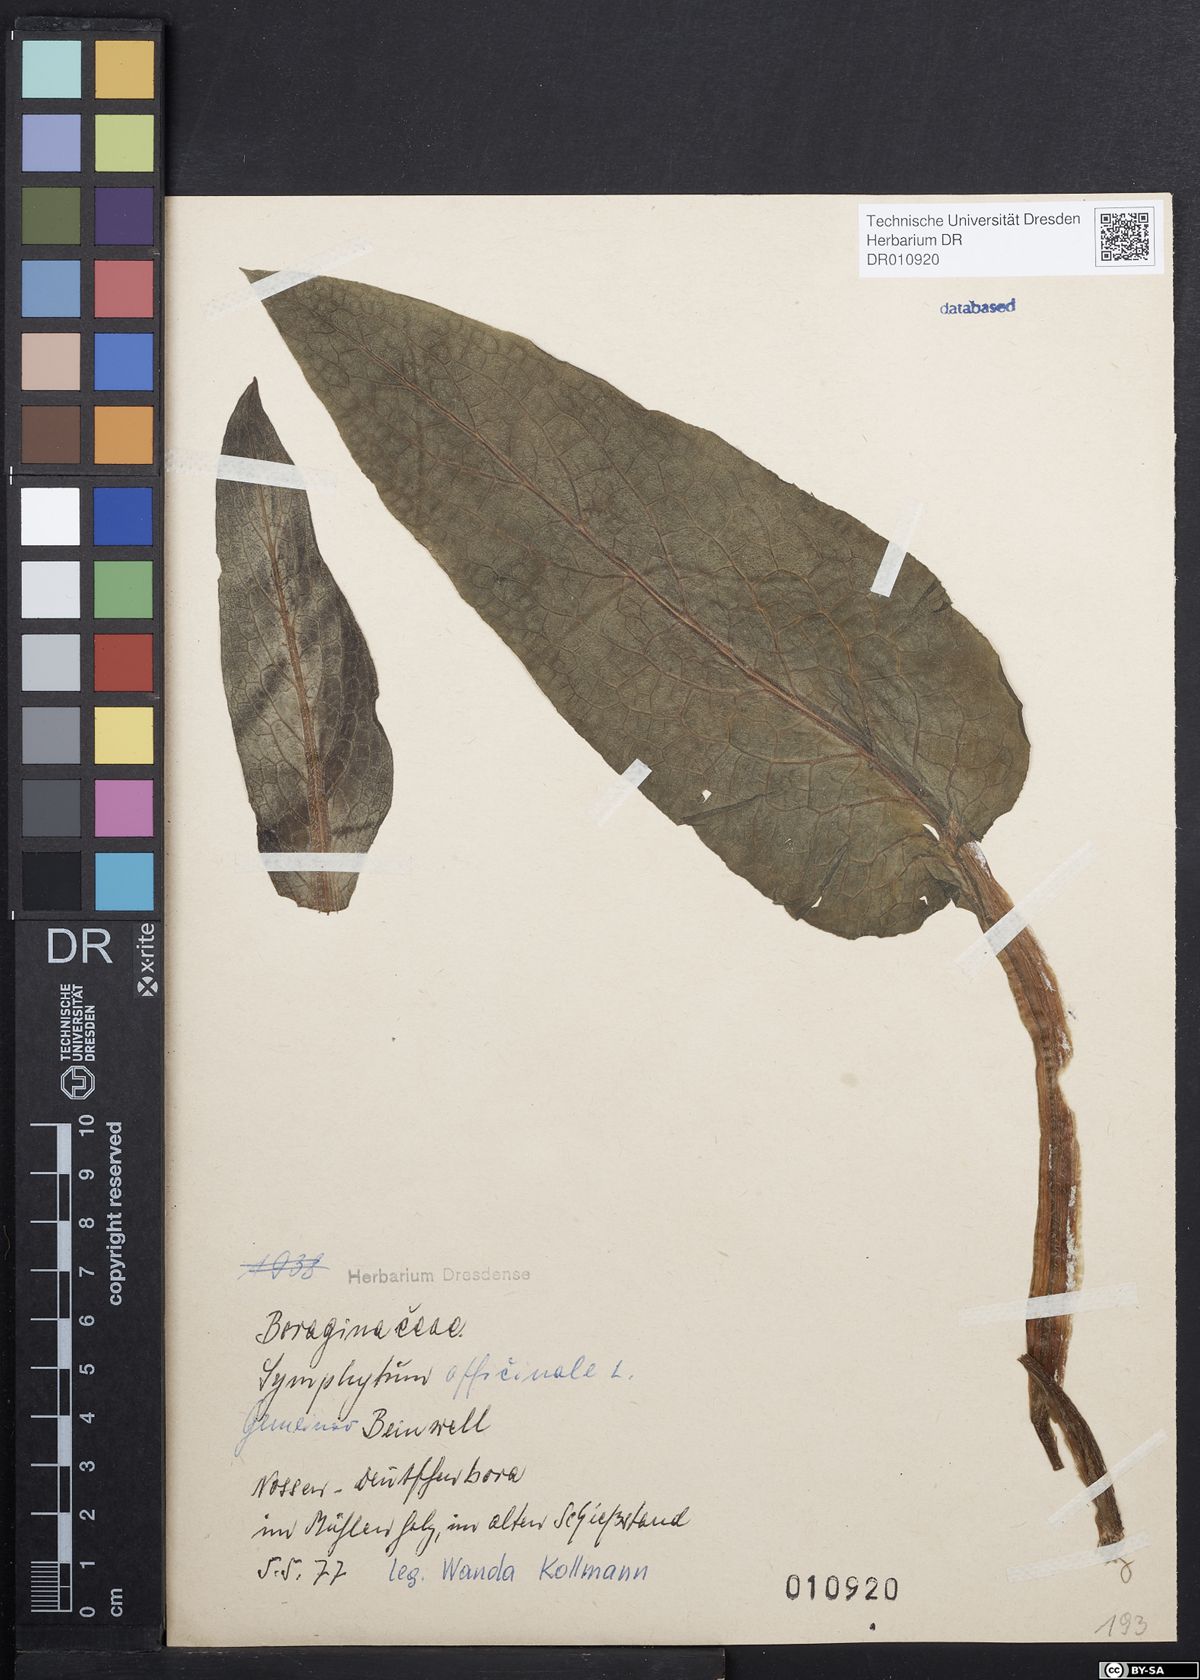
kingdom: Plantae
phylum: Tracheophyta
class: Magnoliopsida
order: Boraginales
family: Boraginaceae
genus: Symphytum
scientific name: Symphytum officinale
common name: Common comfrey
